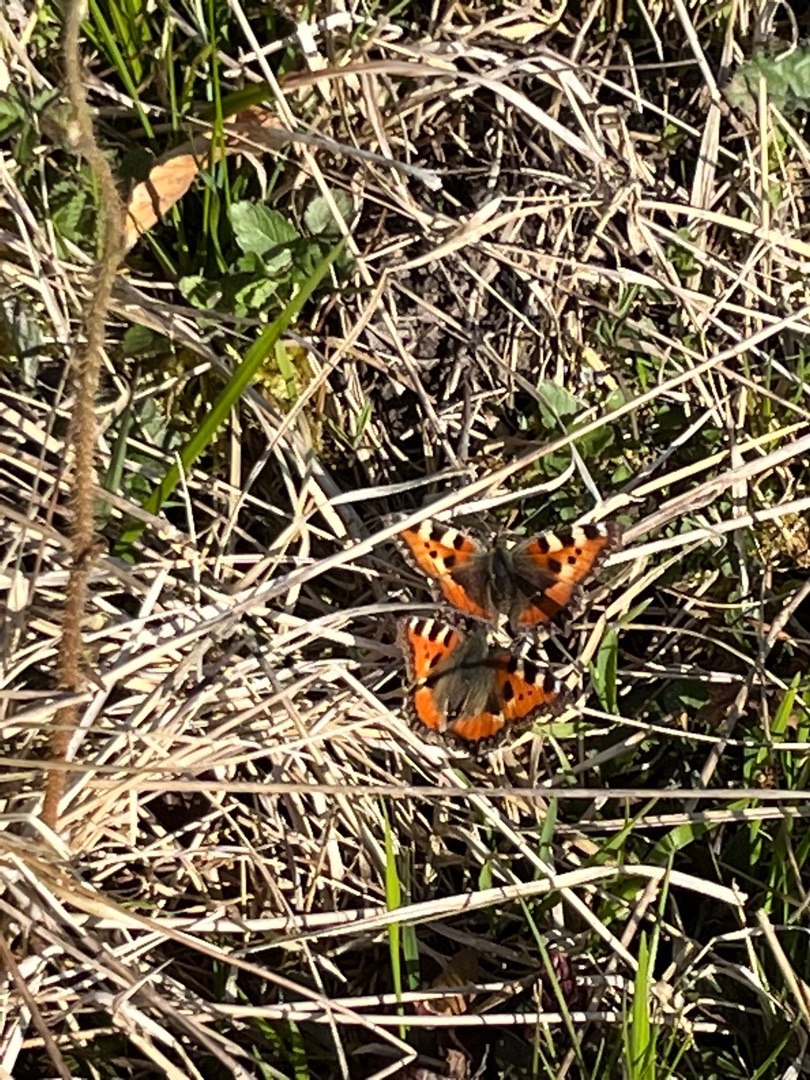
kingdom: Animalia
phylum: Arthropoda
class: Insecta
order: Lepidoptera
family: Nymphalidae
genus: Aglais
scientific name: Aglais urticae
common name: Nældens takvinge
